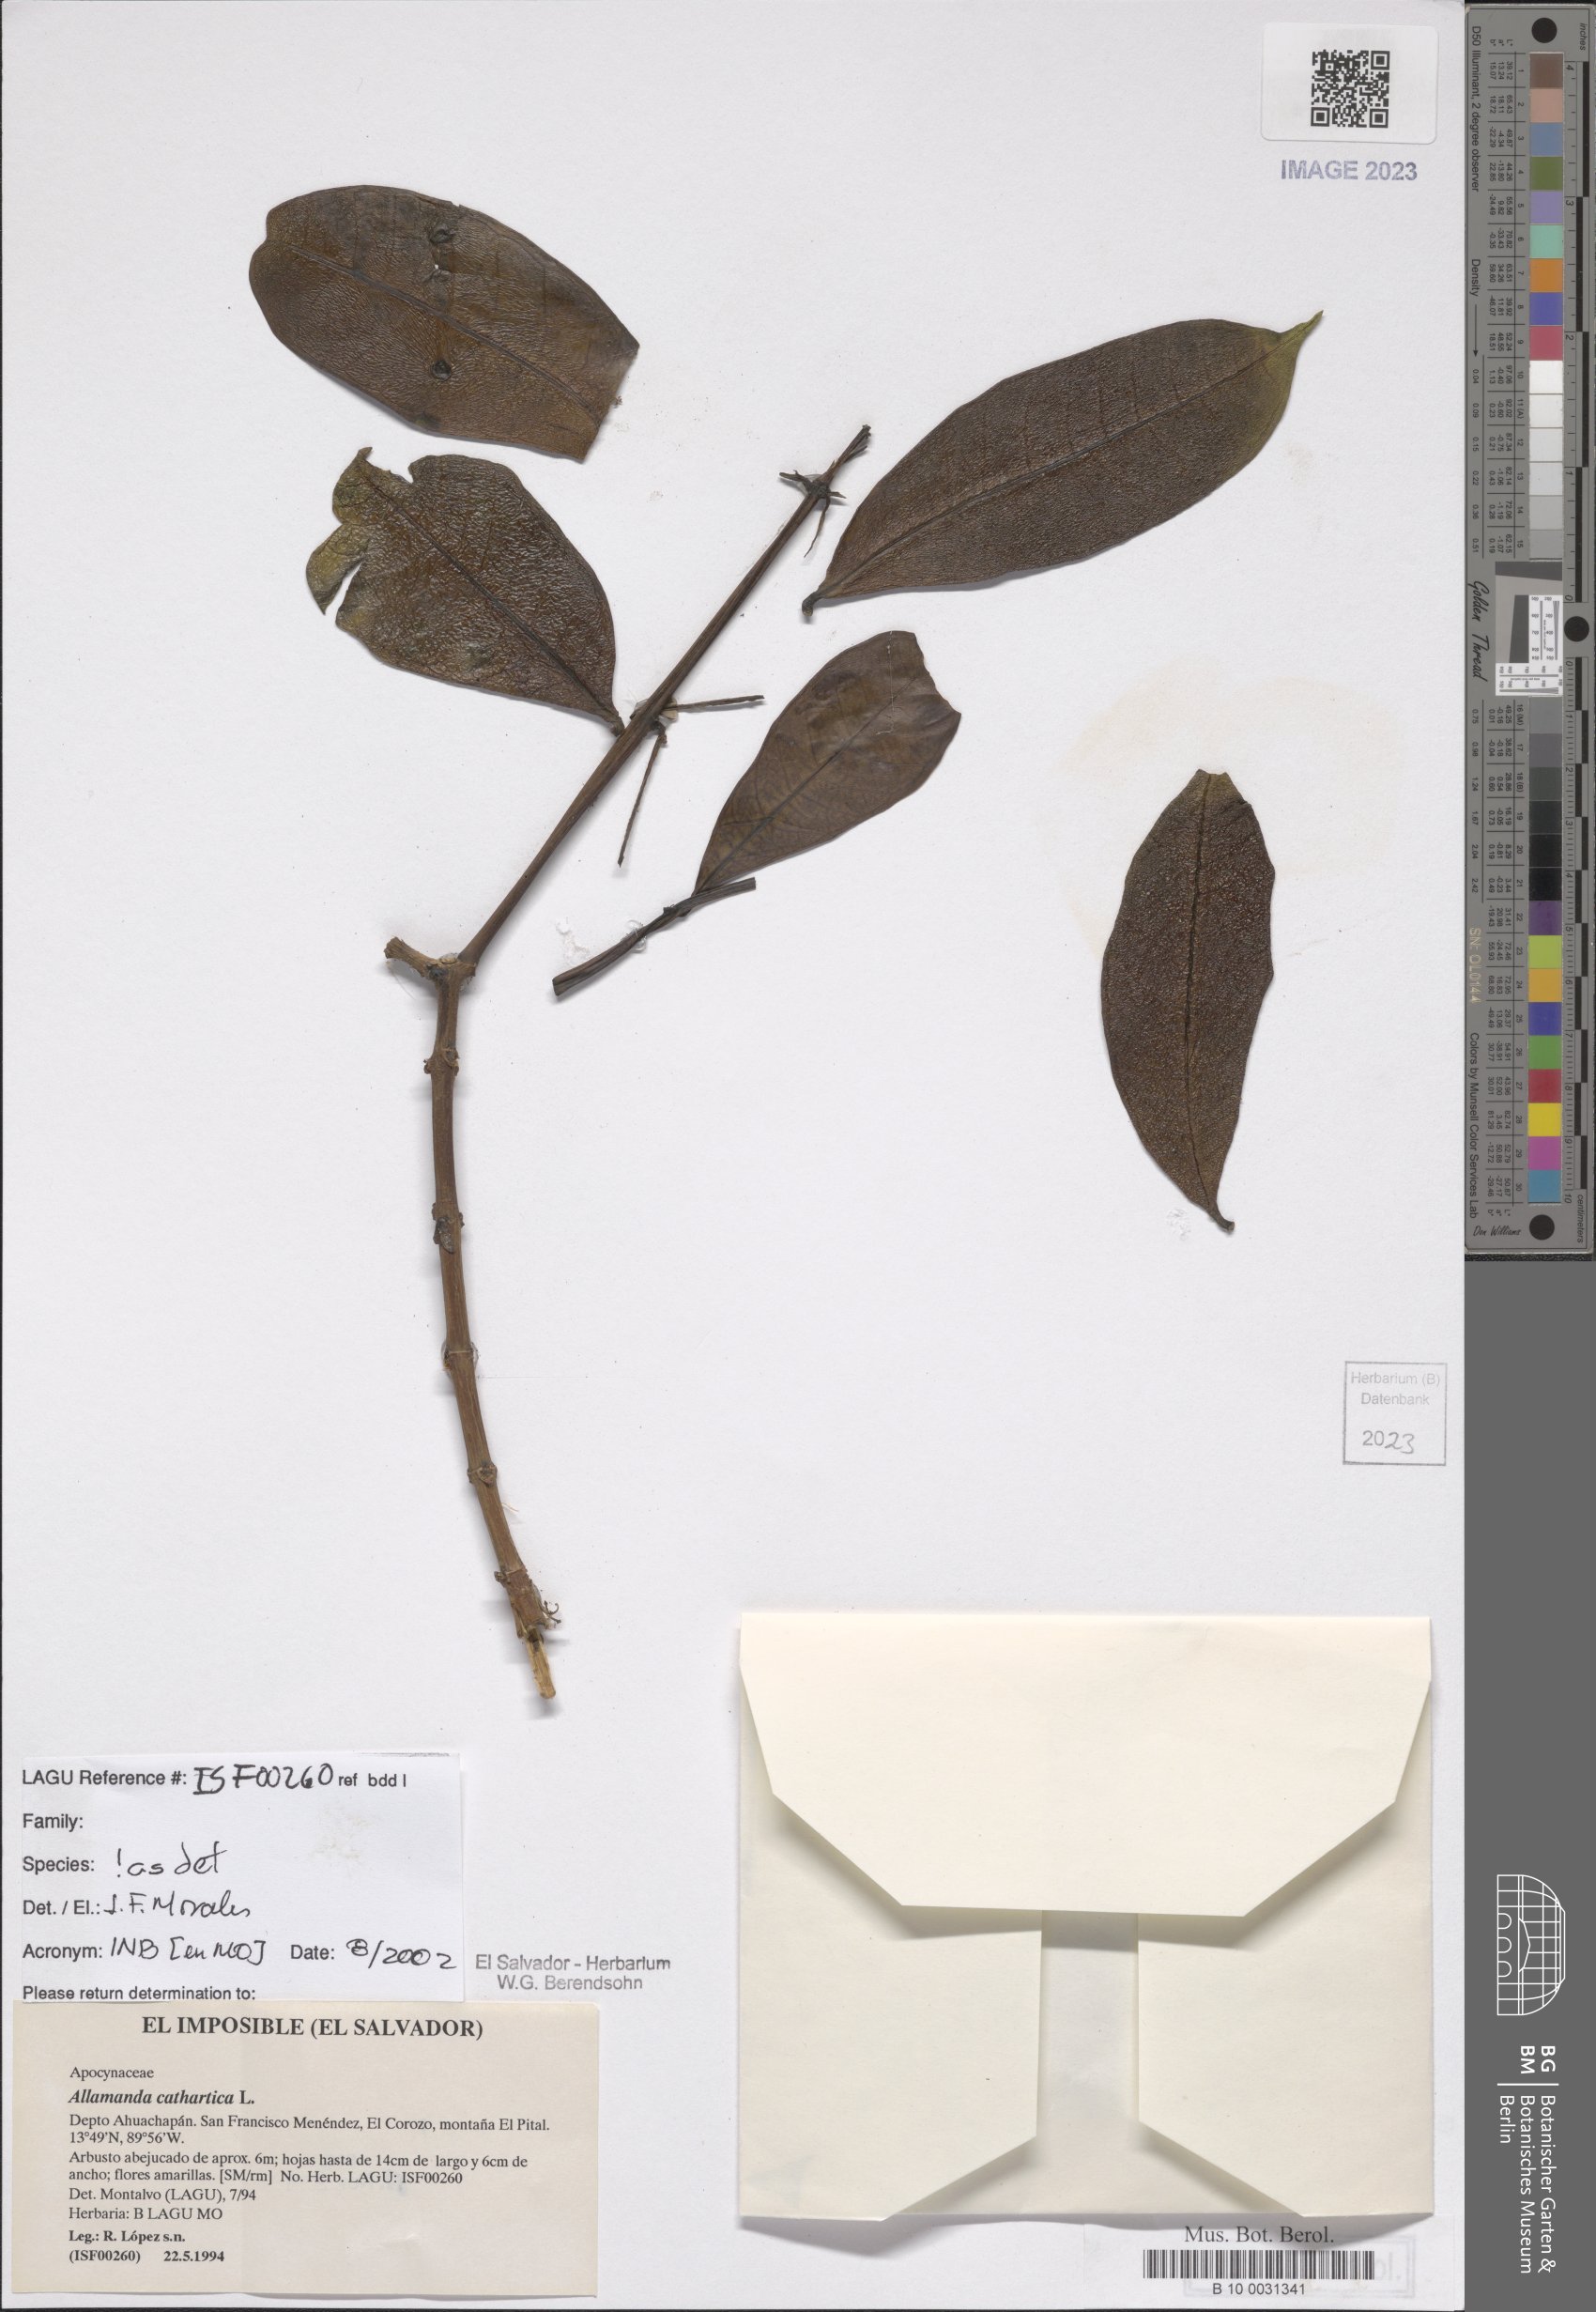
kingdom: Plantae
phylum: Tracheophyta
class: Magnoliopsida
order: Gentianales
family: Apocynaceae
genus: Allamanda
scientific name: Allamanda cathartica
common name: Golden trumpet
